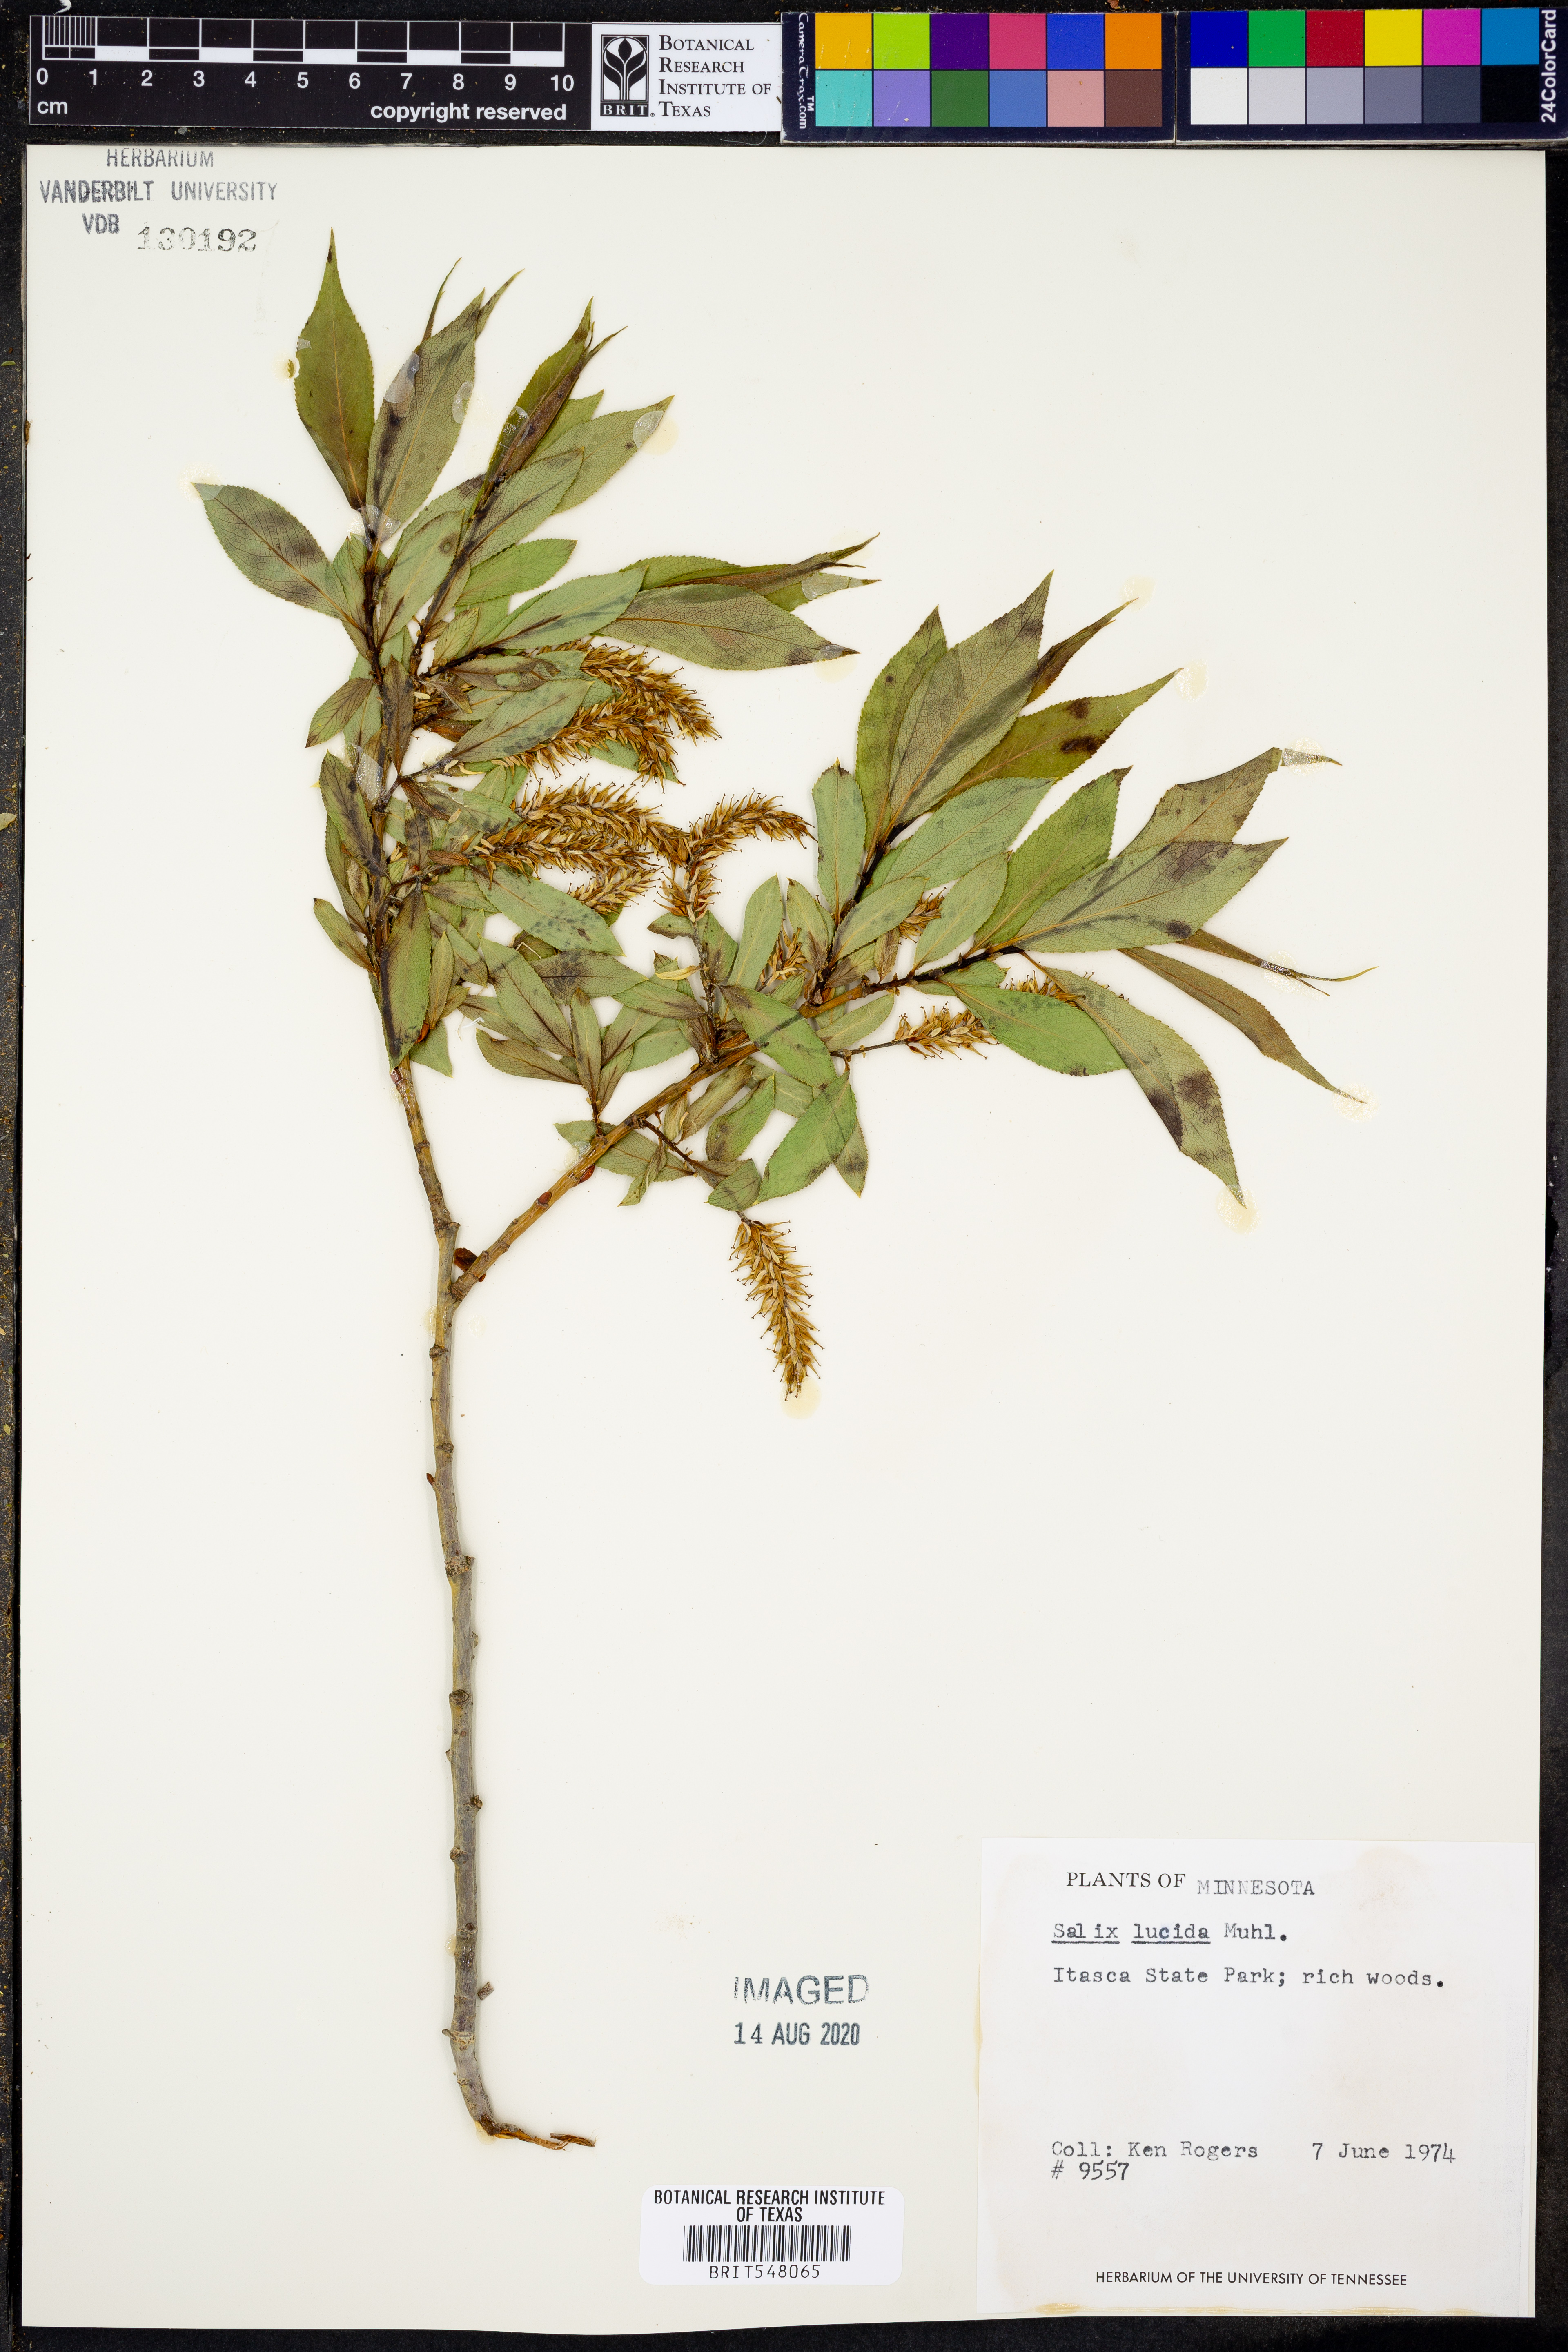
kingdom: Plantae
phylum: Tracheophyta
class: Magnoliopsida
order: Malpighiales
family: Salicaceae
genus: Salix
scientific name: Salix lucida
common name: Shining willow
